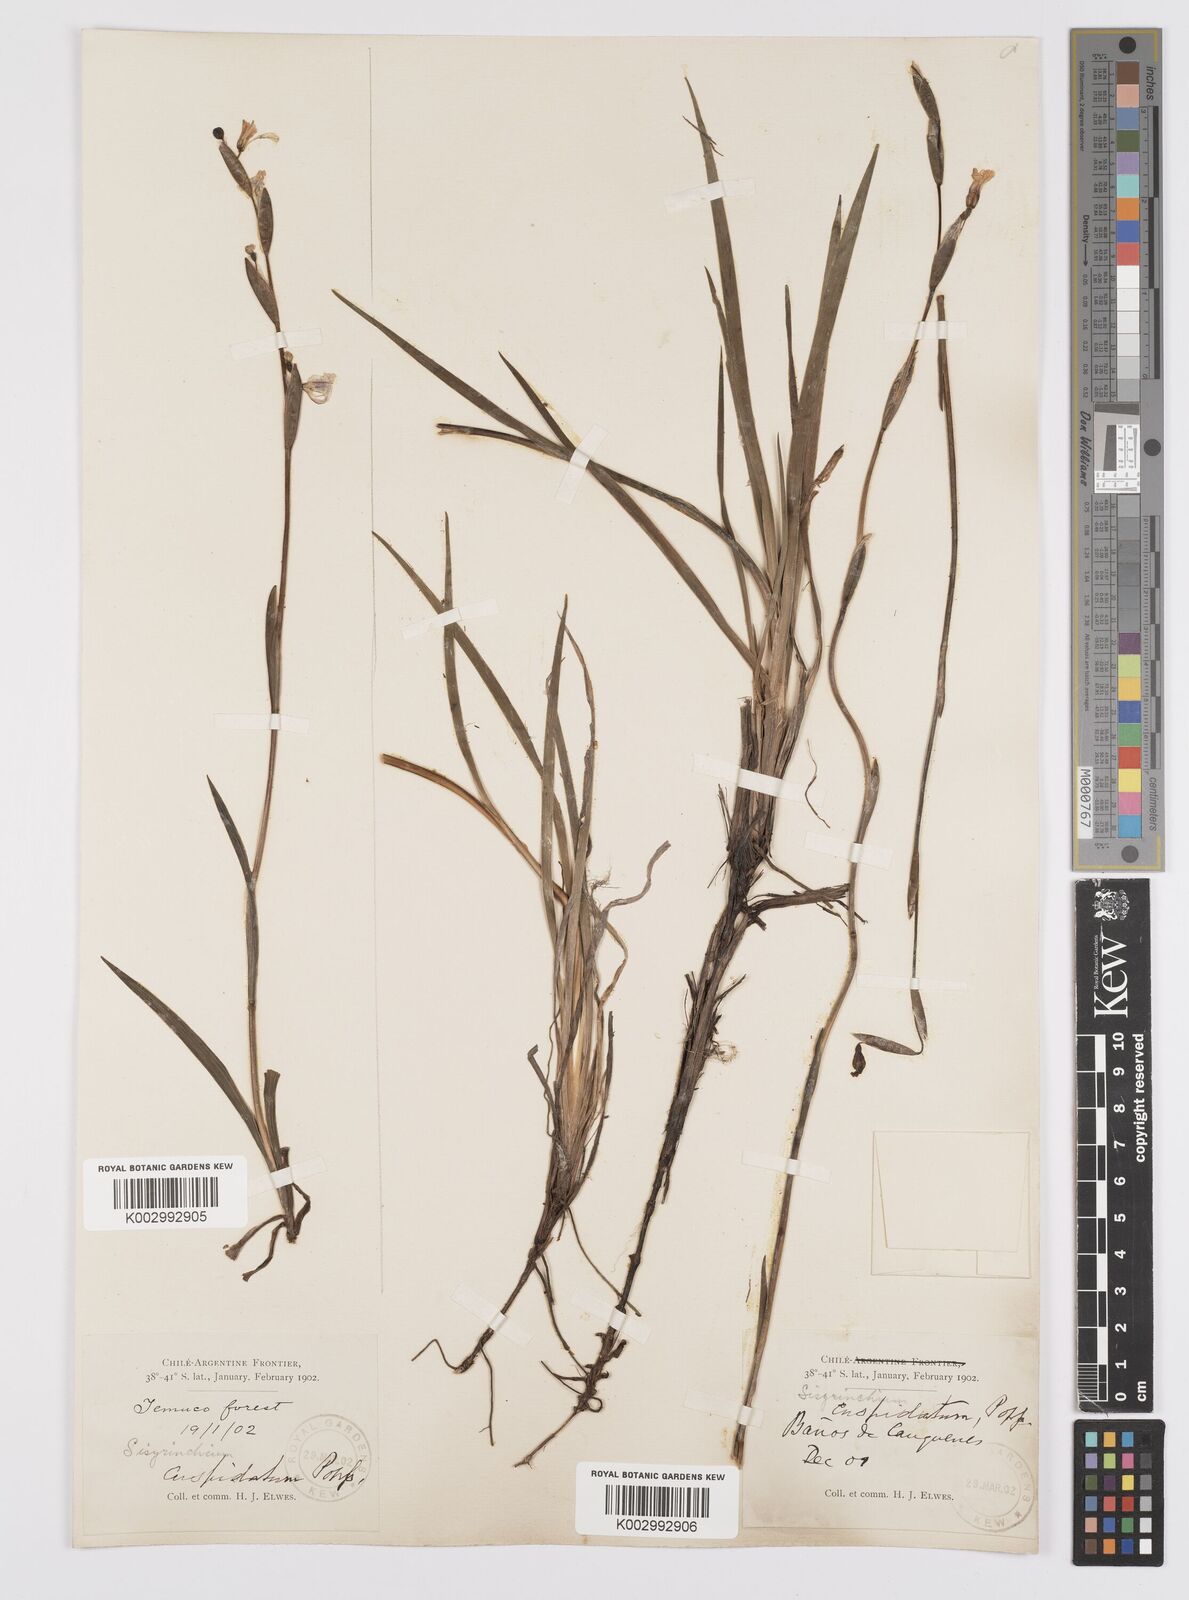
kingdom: Plantae
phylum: Tracheophyta
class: Liliopsida
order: Asparagales
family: Iridaceae
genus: Sisyrinchium
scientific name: Sisyrinchium cuspidatum
